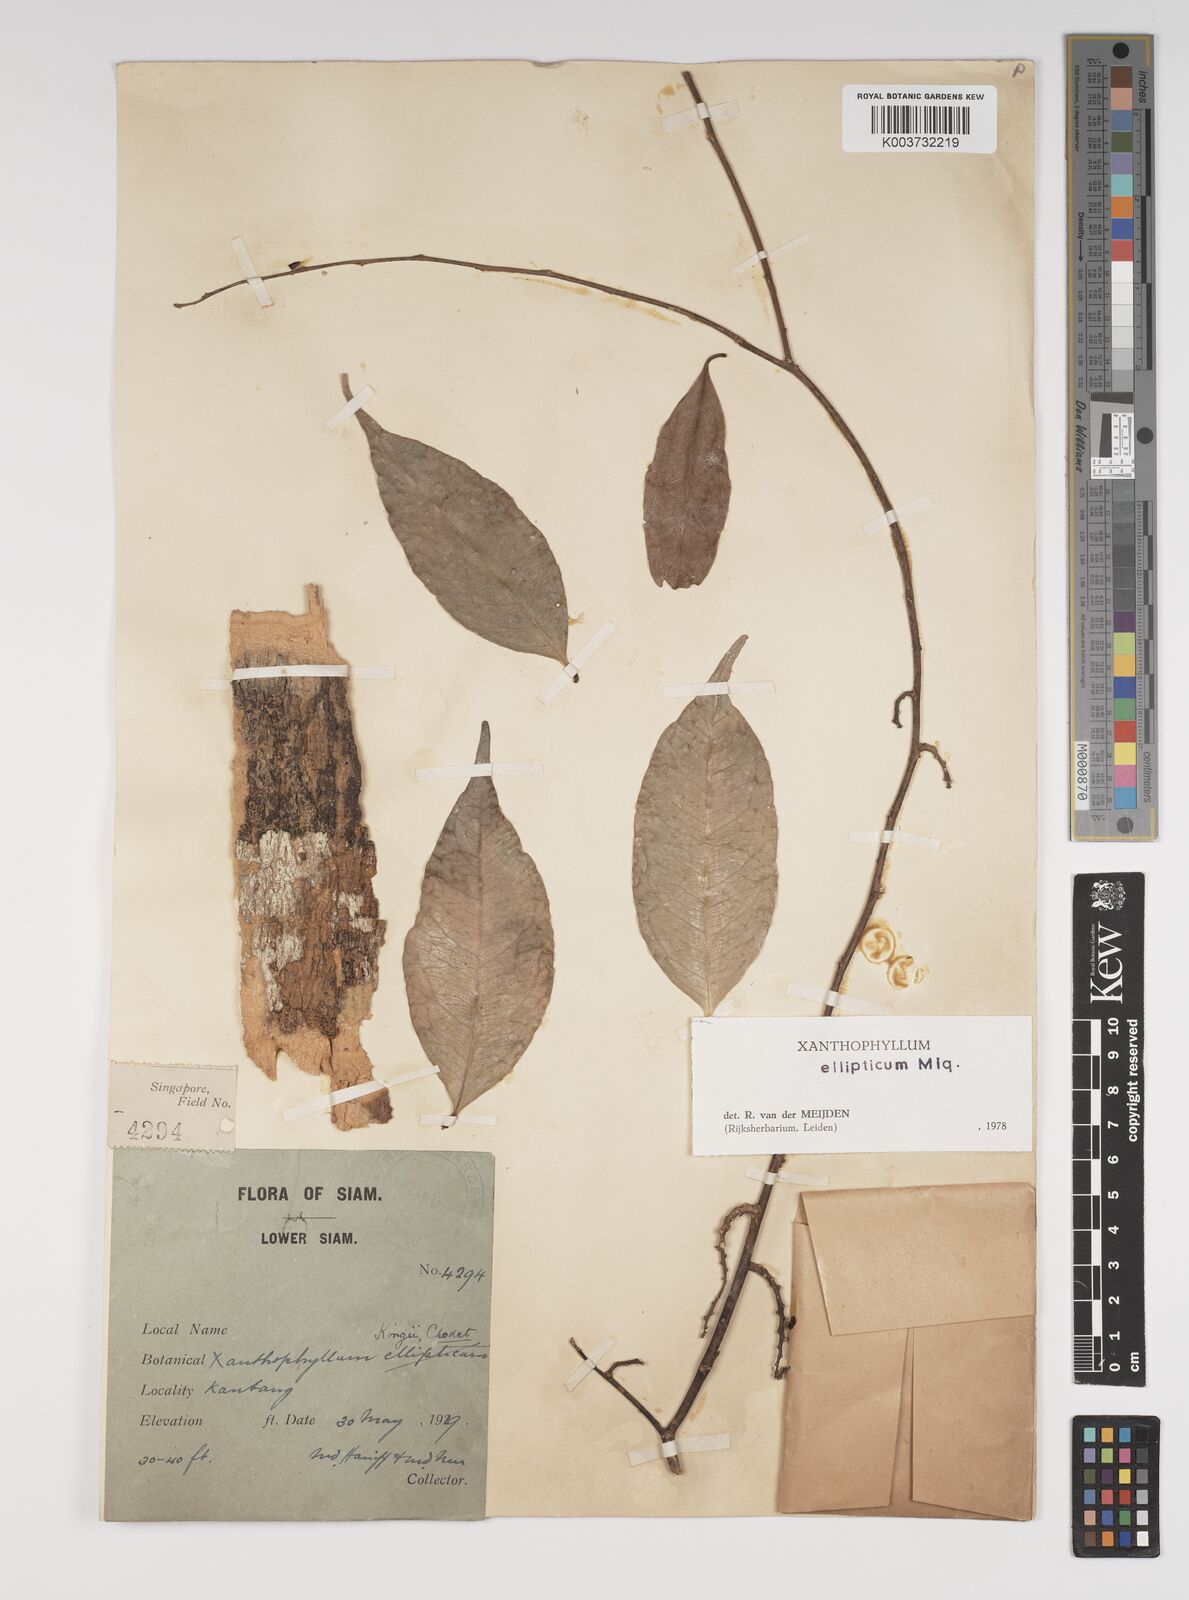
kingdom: Plantae
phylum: Tracheophyta
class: Magnoliopsida
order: Fabales
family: Polygalaceae
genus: Xanthophyllum
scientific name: Xanthophyllum ellipticum
